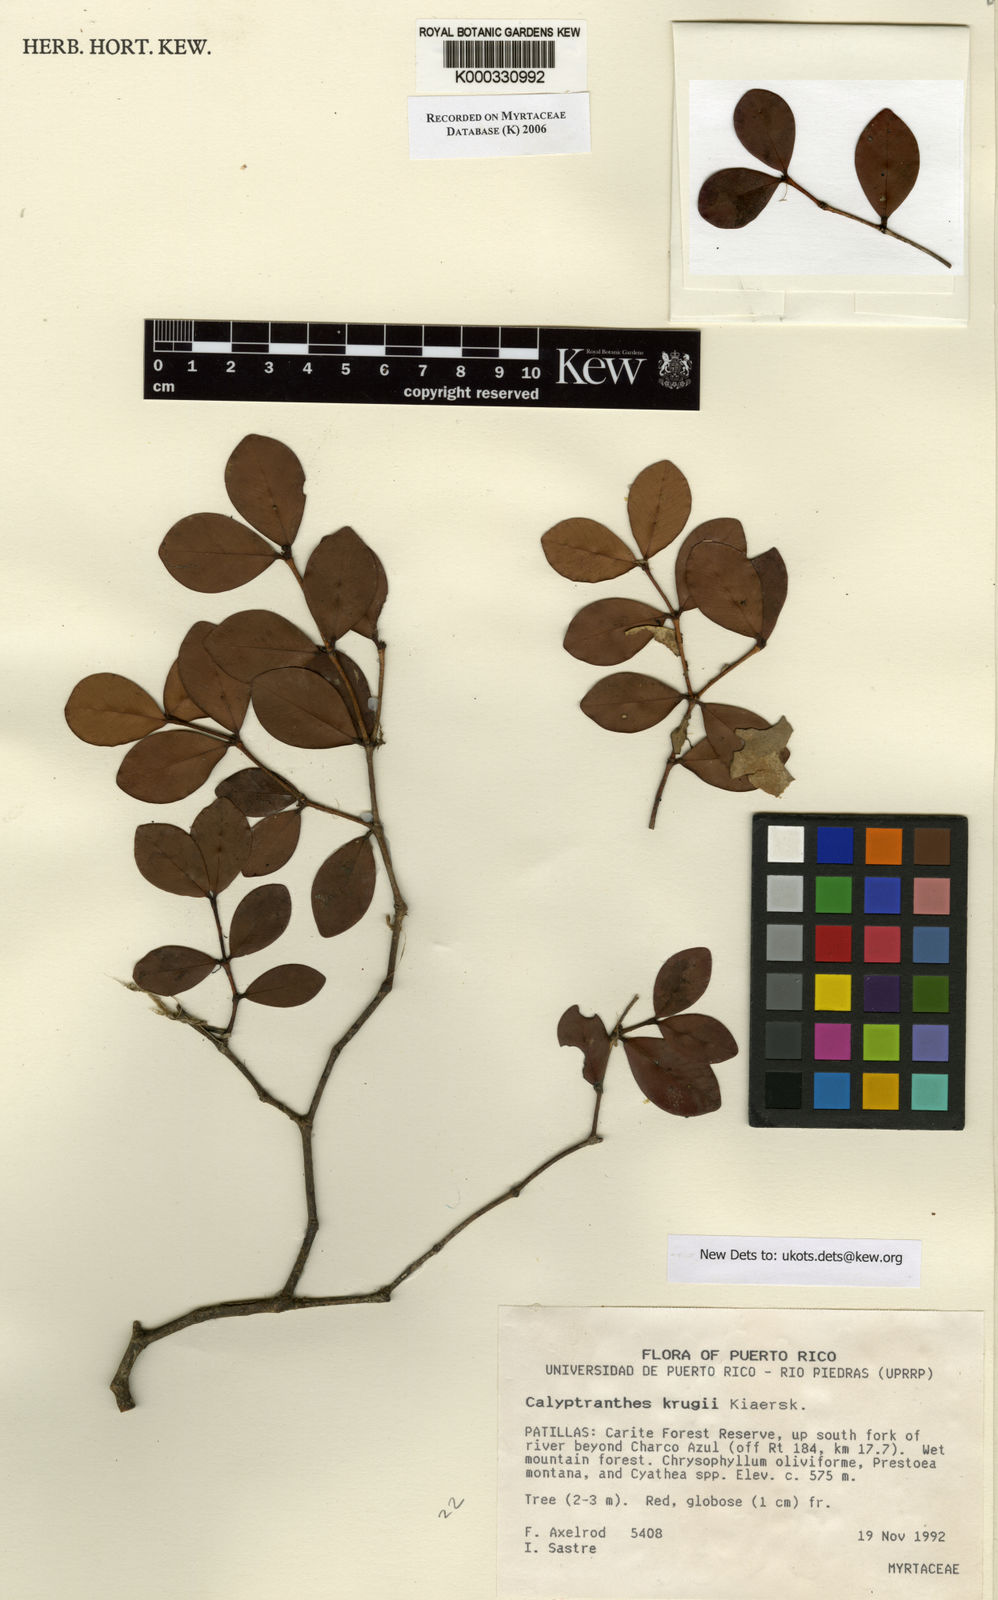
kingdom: Plantae
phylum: Tracheophyta
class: Magnoliopsida
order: Myrtales
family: Myrtaceae
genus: Myrcia
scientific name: Myrcia krugii
